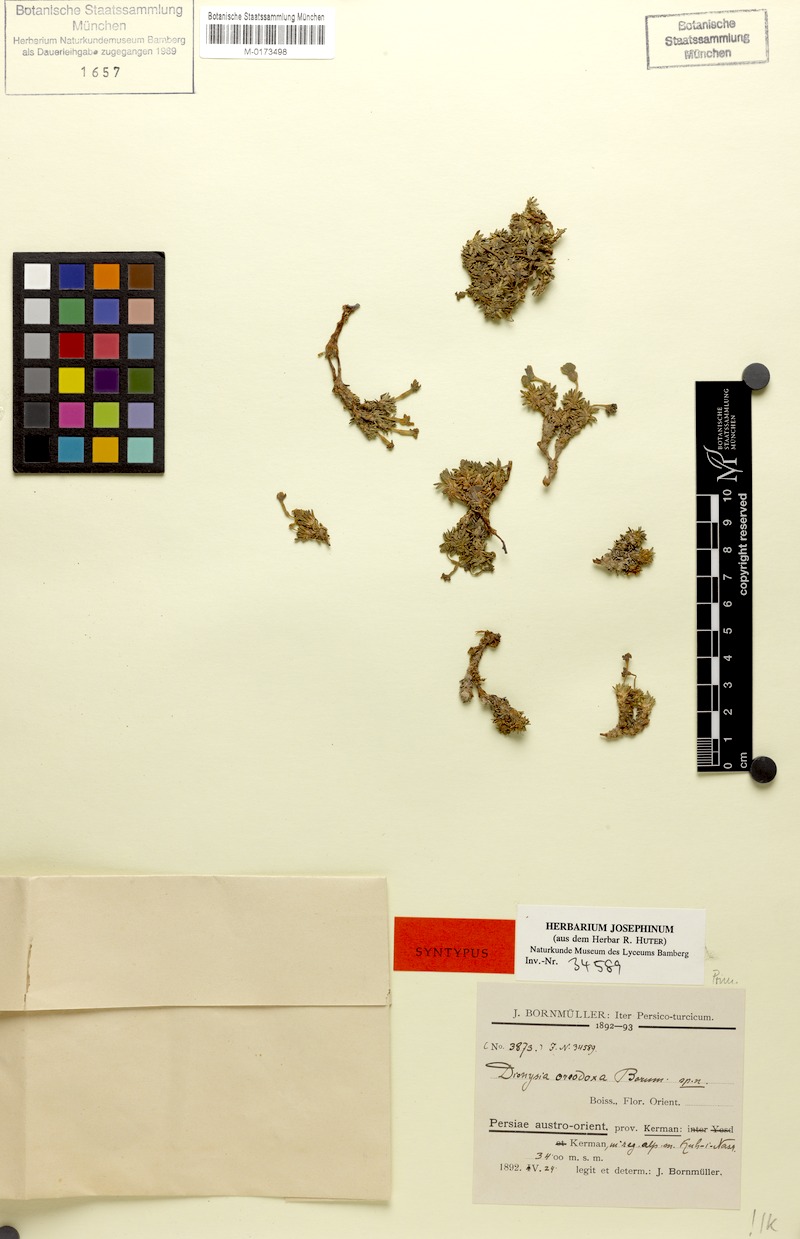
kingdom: Plantae
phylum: Tracheophyta
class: Magnoliopsida
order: Ericales
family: Primulaceae
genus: Dionysia
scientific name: Dionysia oreodoxa
